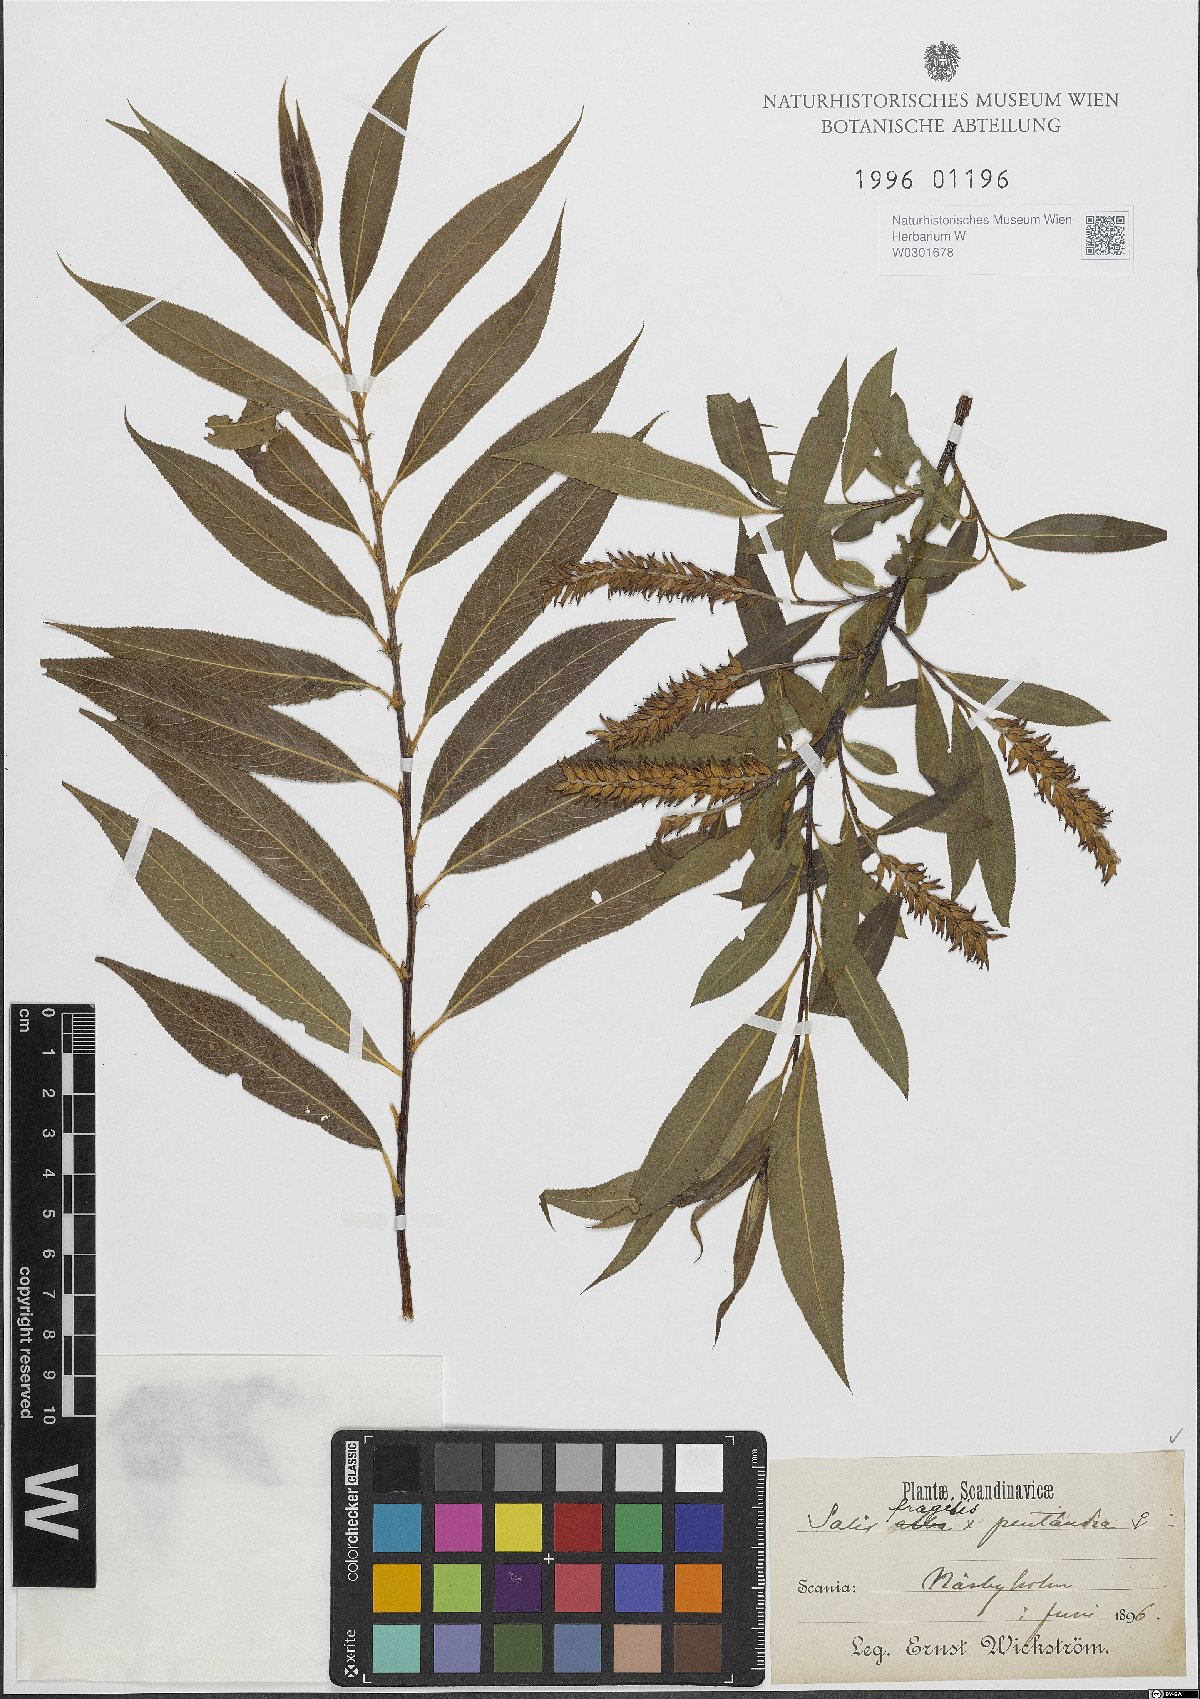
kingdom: Plantae
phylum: Tracheophyta
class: Magnoliopsida
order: Malpighiales
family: Salicaceae
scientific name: Salicaceae
